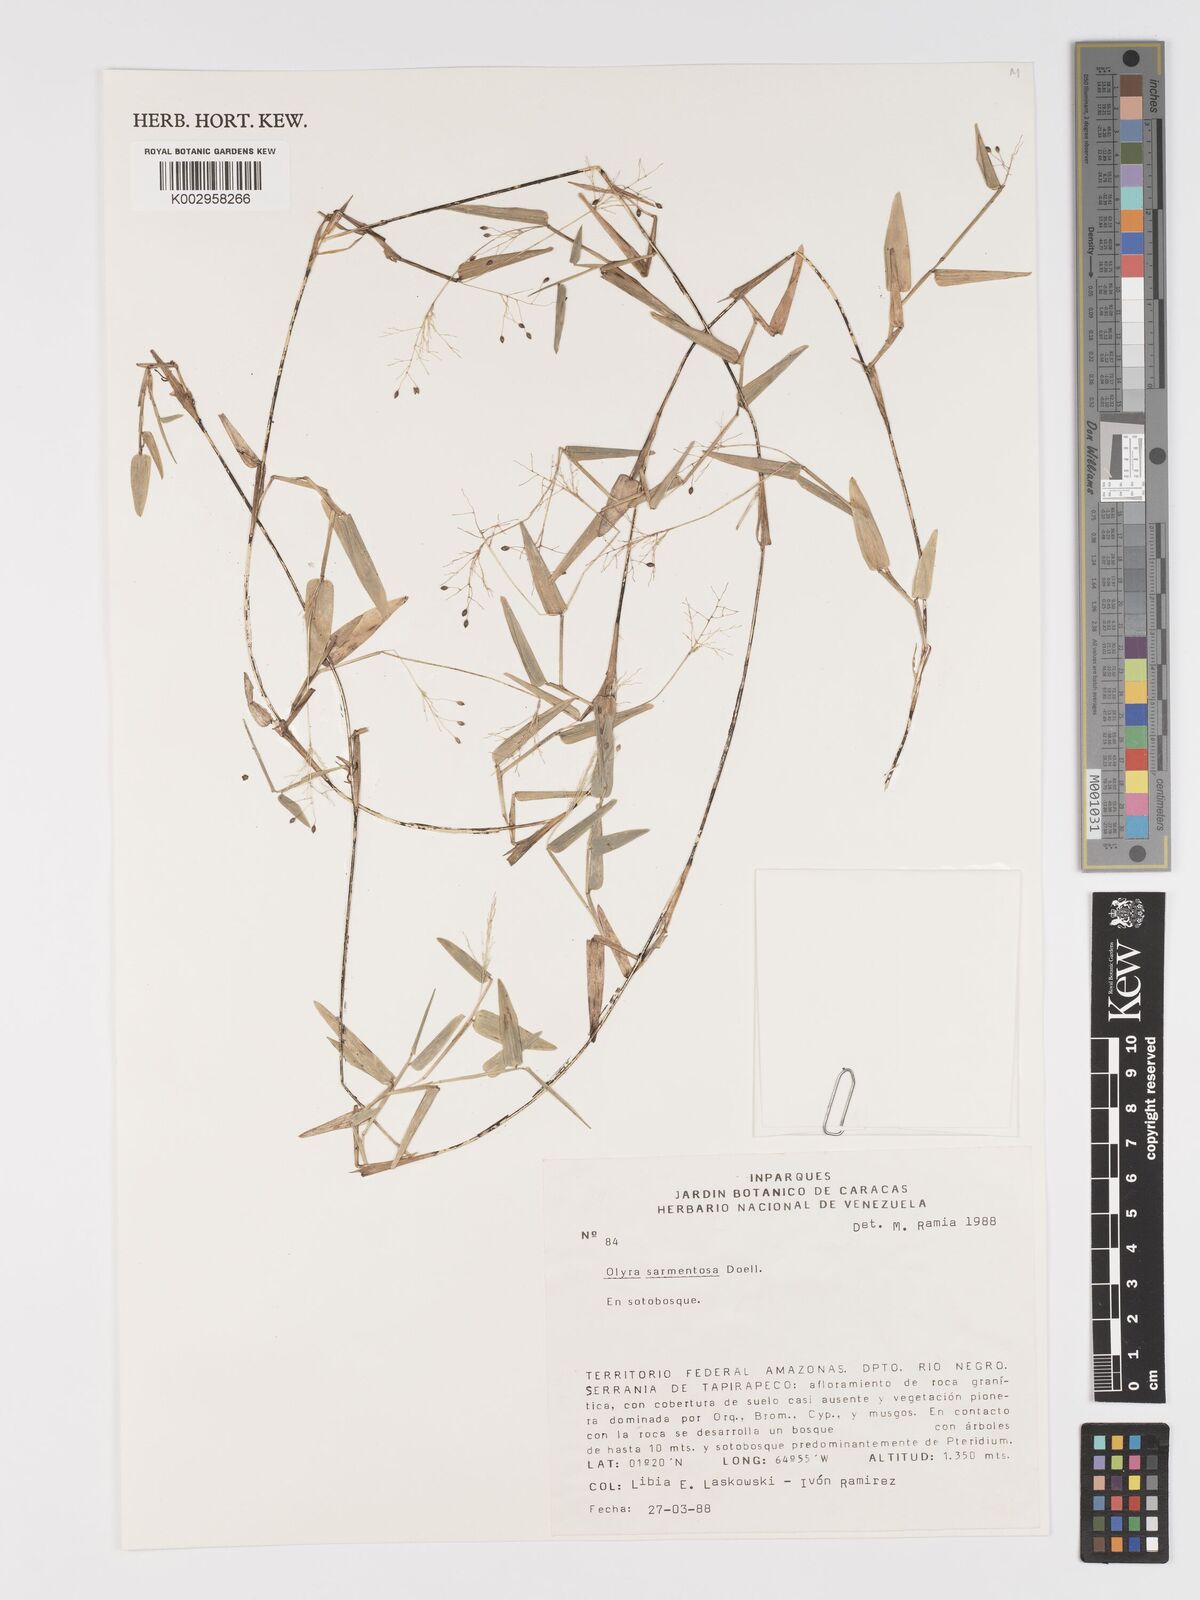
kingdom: Plantae
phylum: Tracheophyta
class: Liliopsida
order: Poales
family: Poaceae
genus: Parodiolyra
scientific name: Parodiolyra lateralis
